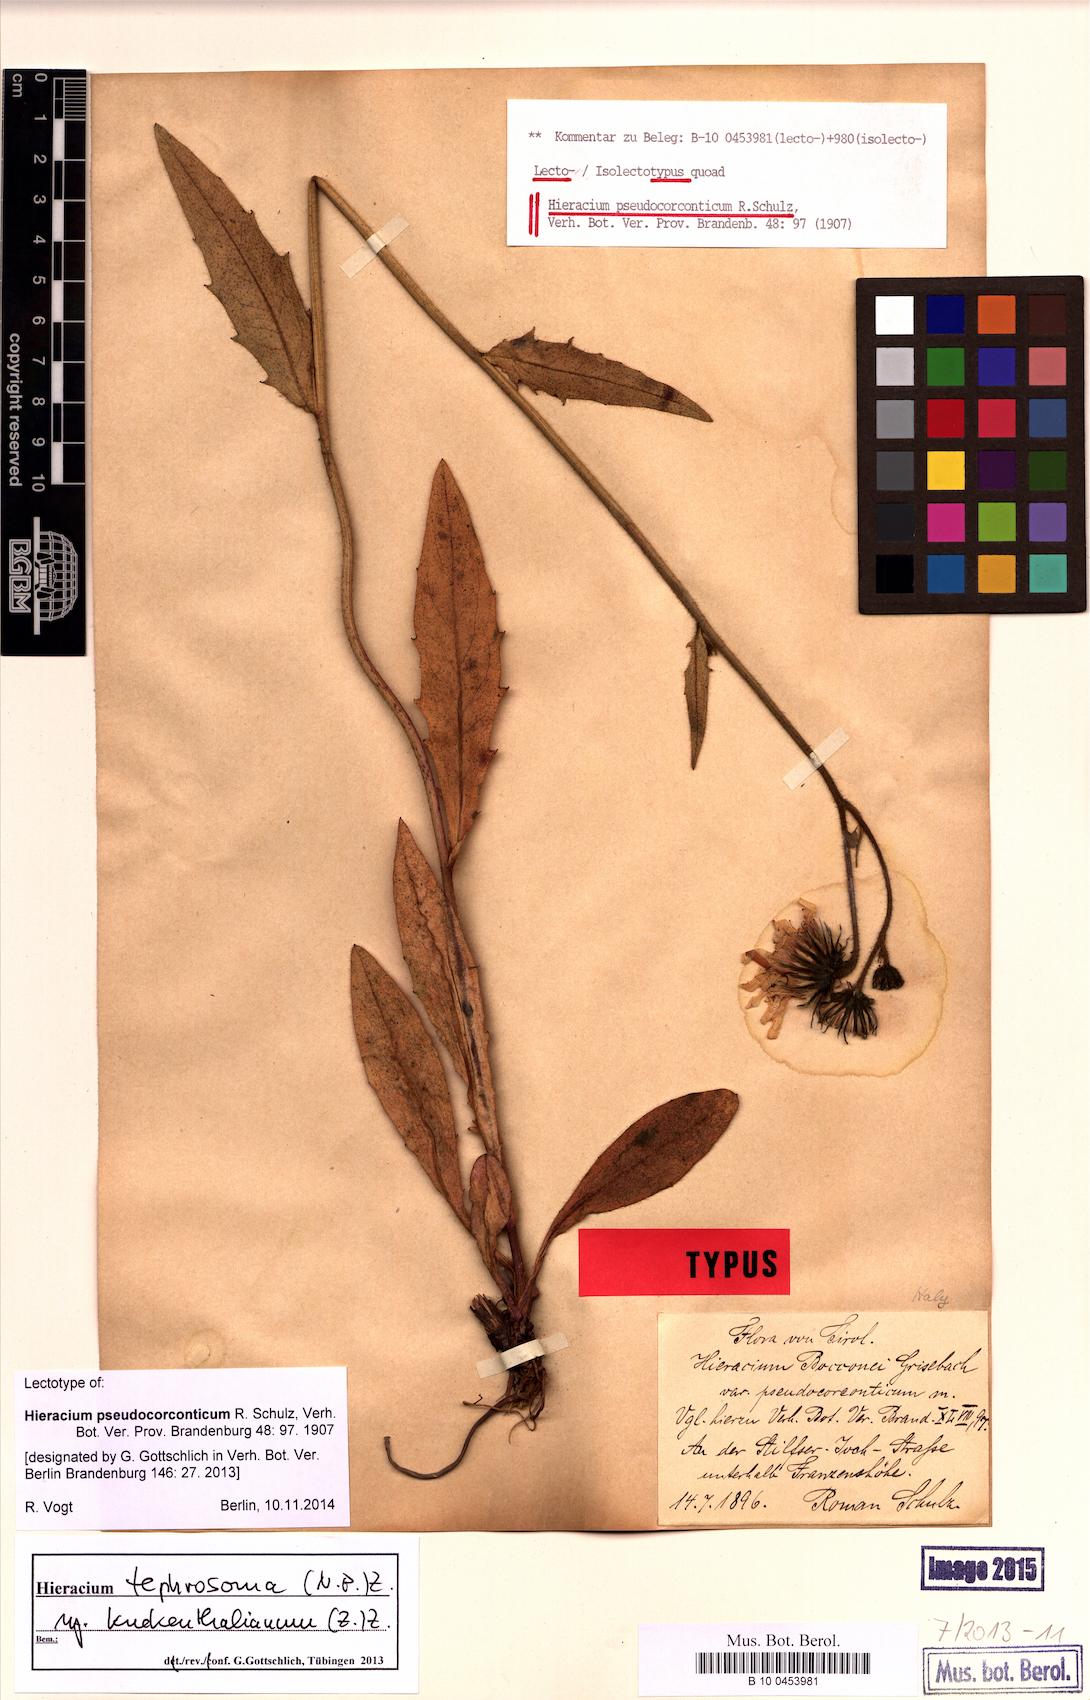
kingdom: Plantae
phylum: Tracheophyta
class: Magnoliopsida
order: Asterales
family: Asteraceae
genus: Hieracium
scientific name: Hieracium kuekenthalianum
